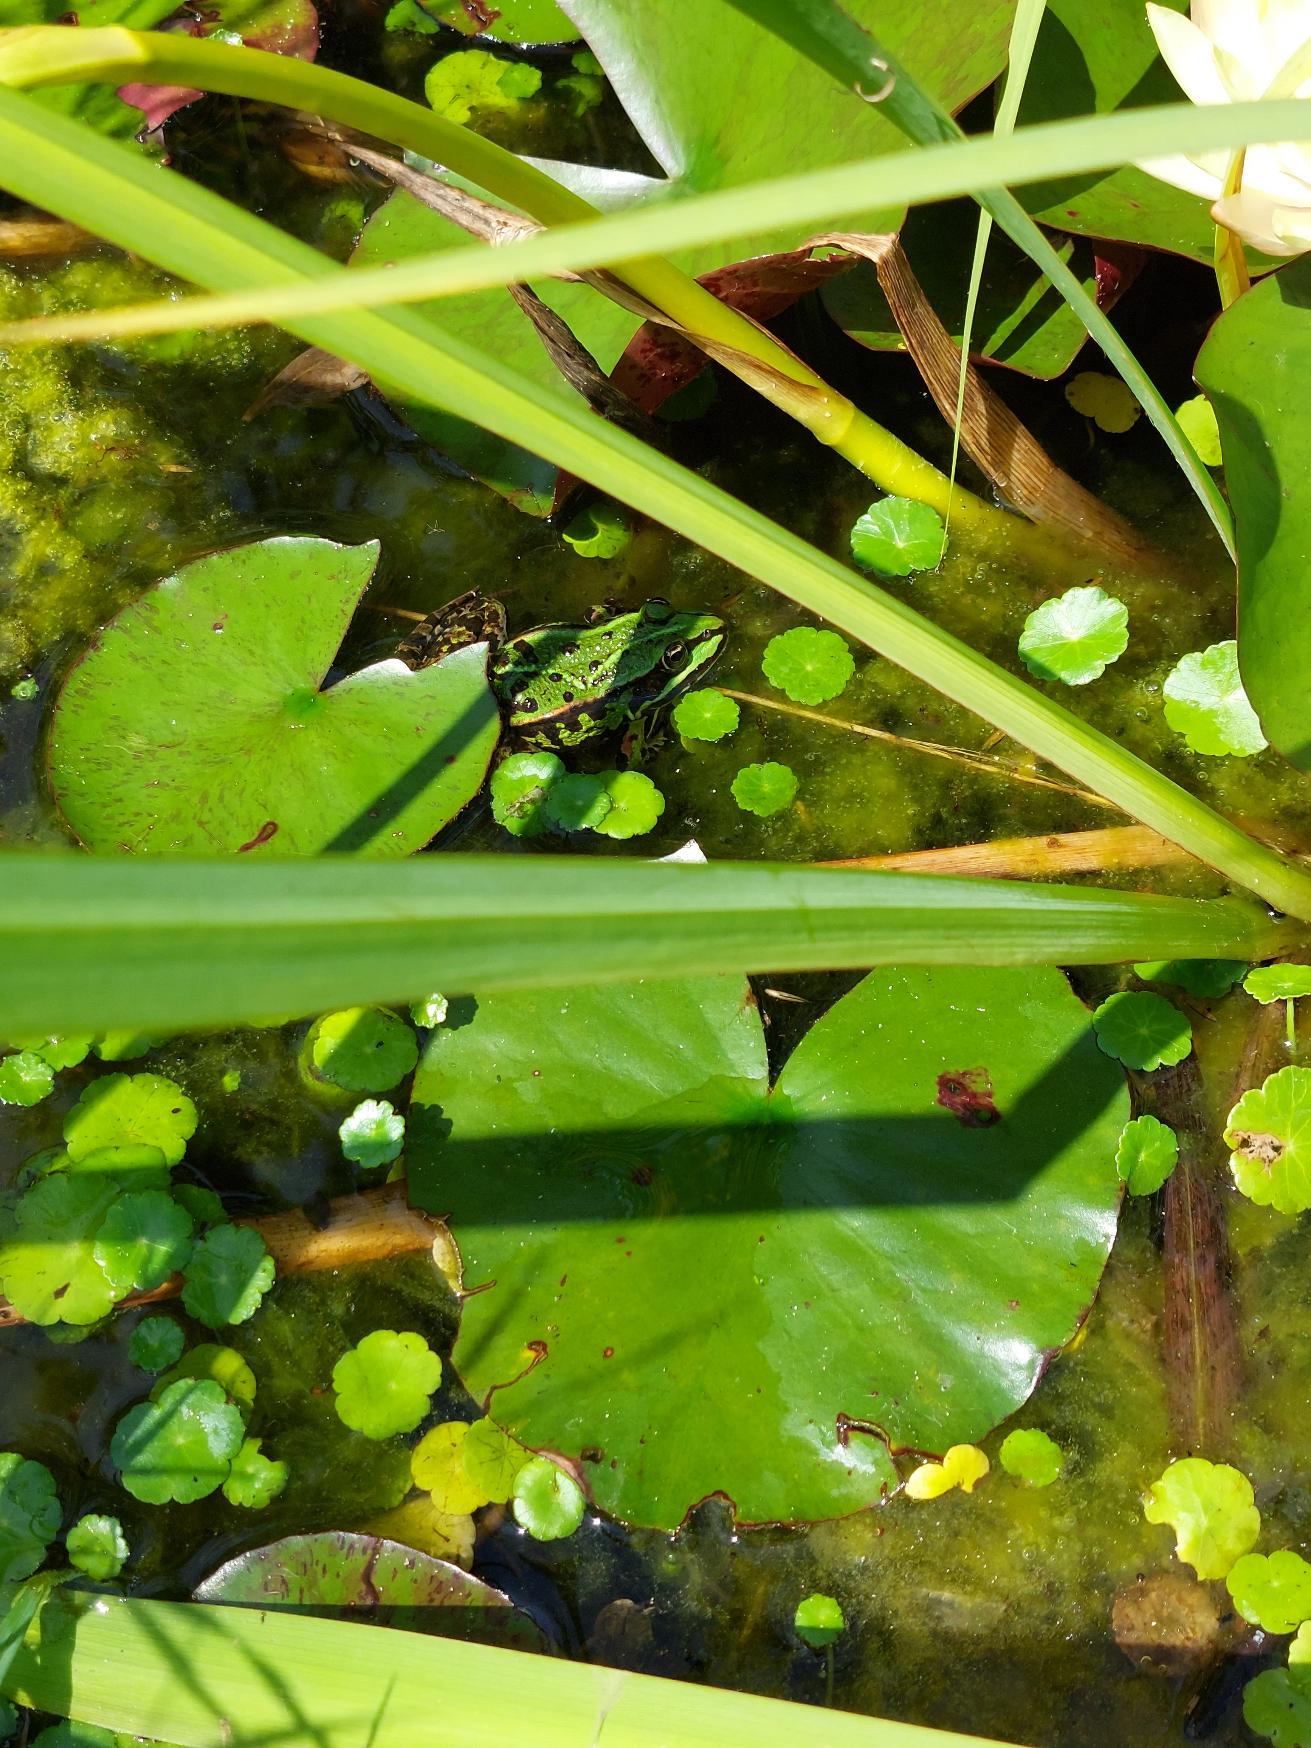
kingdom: Animalia
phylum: Chordata
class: Amphibia
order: Anura
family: Ranidae
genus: Pelophylax
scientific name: Pelophylax lessonae
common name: Grøn frø
